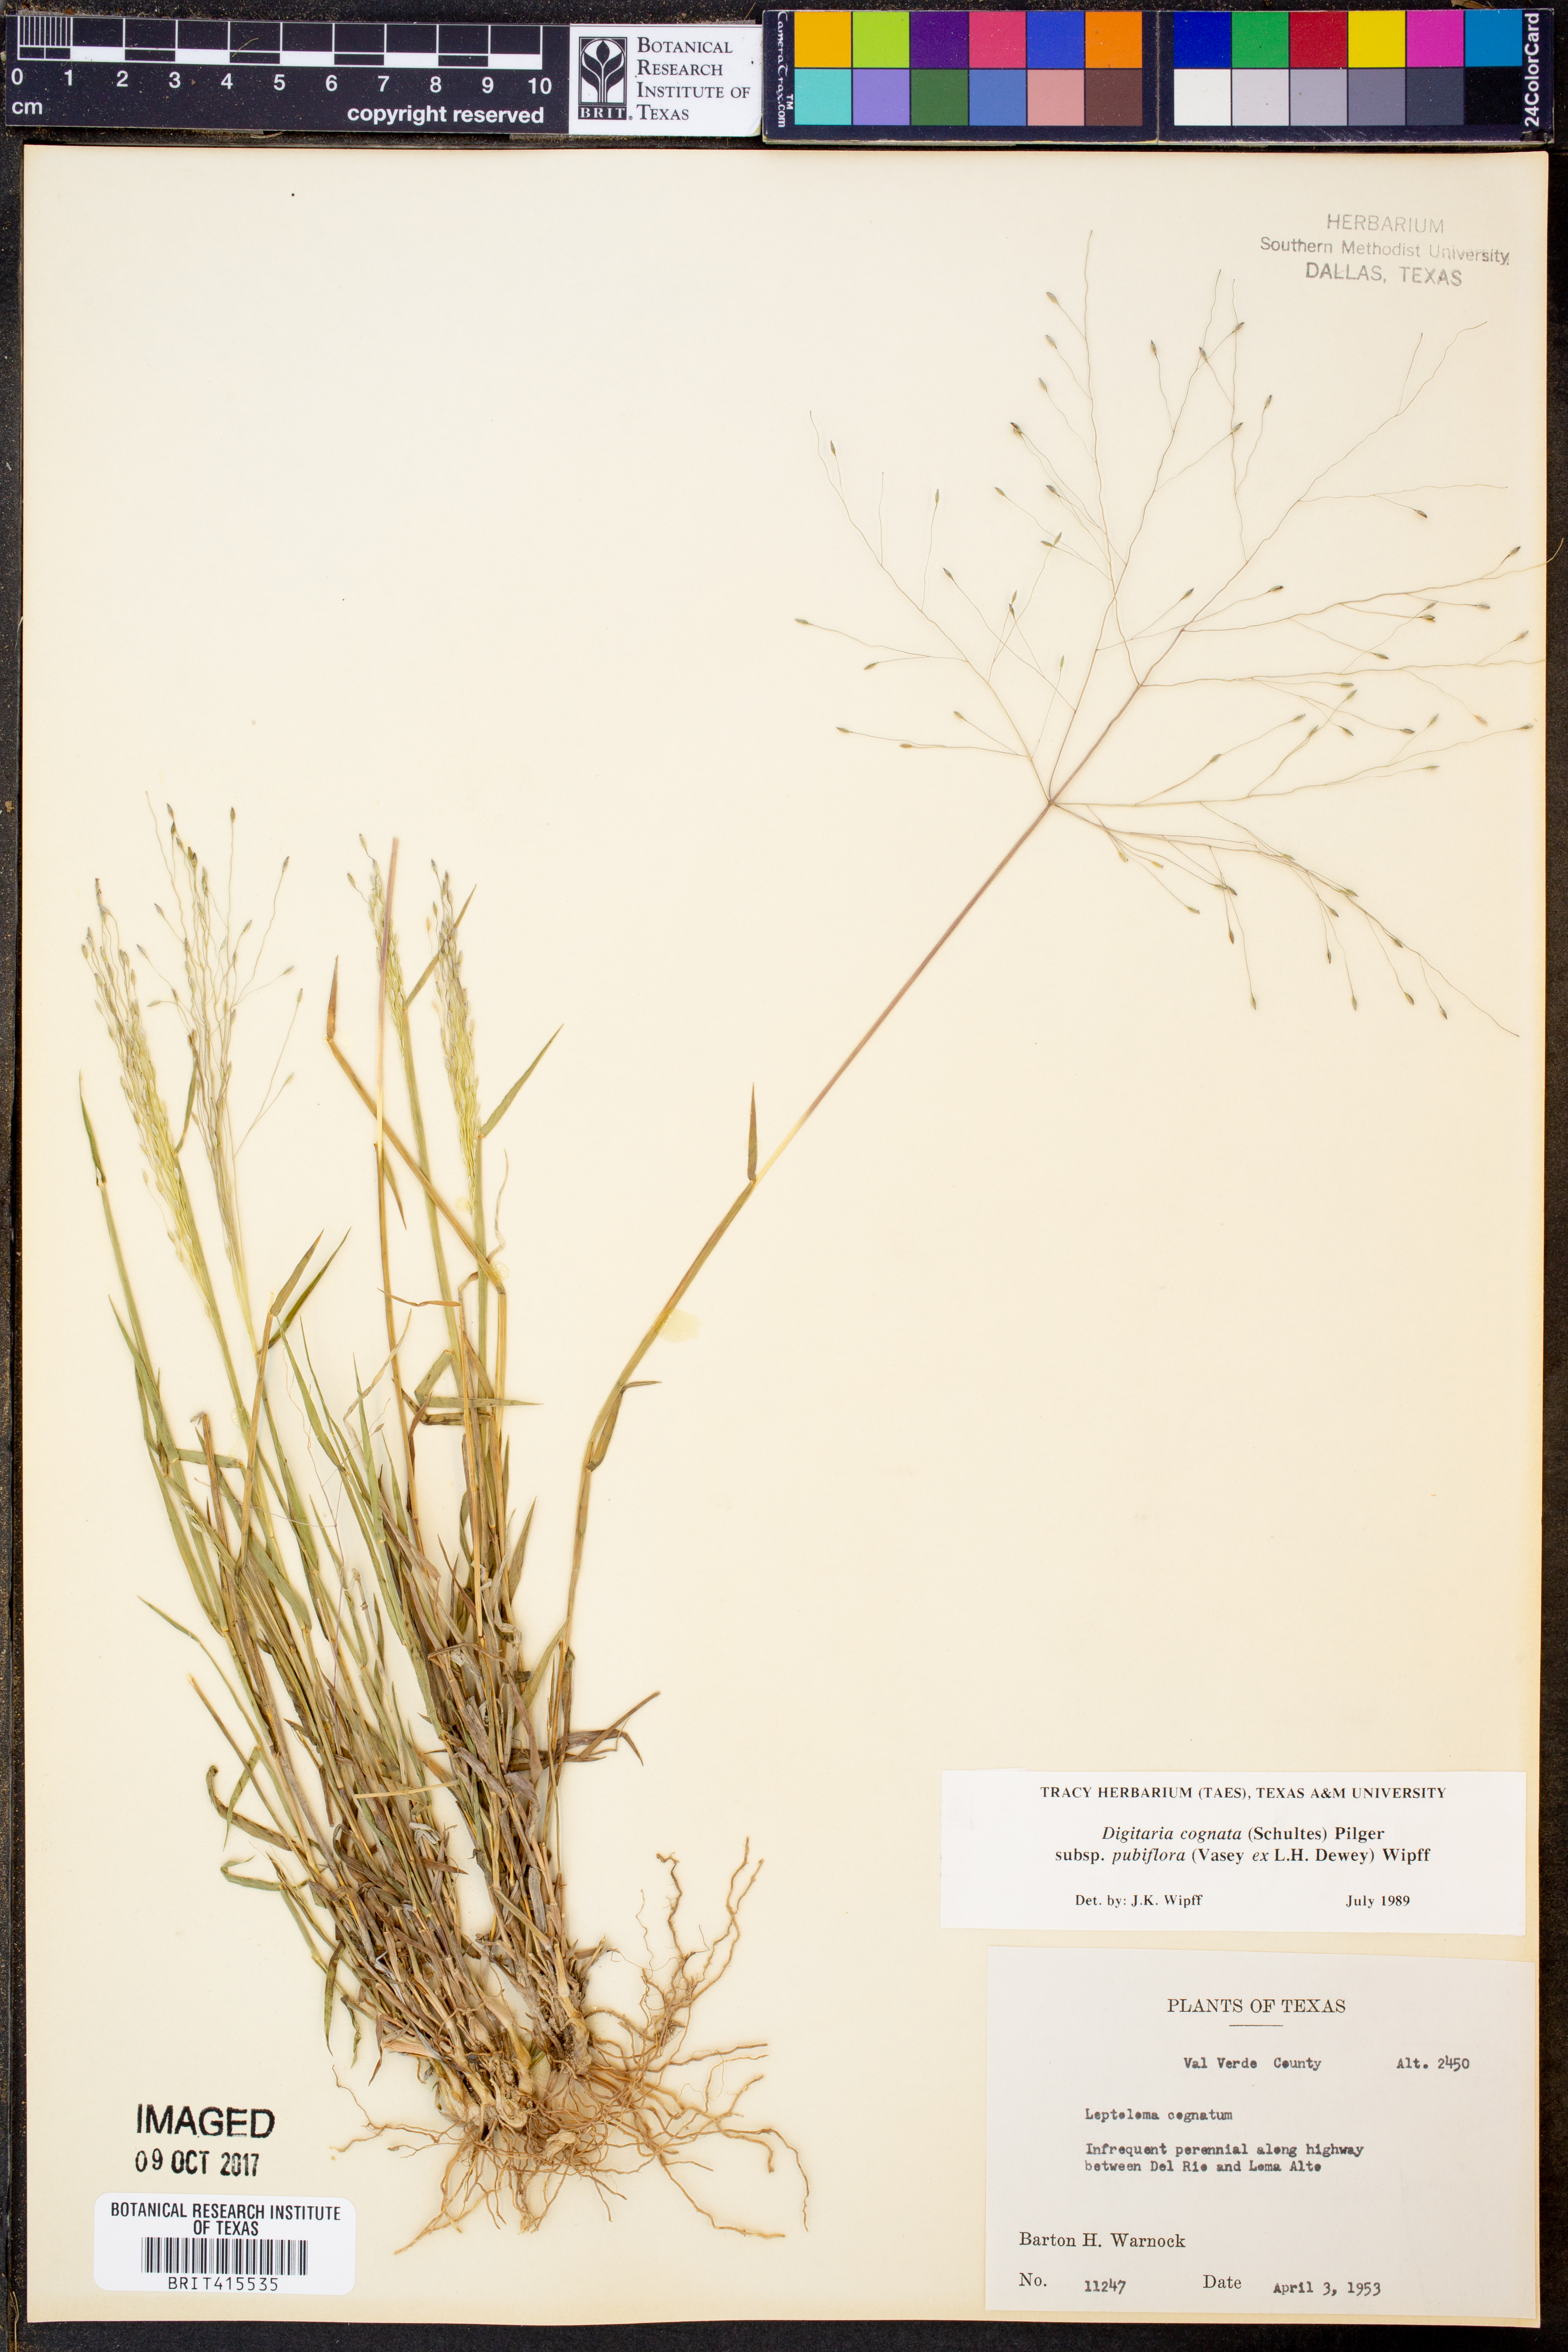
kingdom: Plantae
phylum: Tracheophyta
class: Liliopsida
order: Poales
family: Poaceae
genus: Digitaria
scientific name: Digitaria cognata
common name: Fall witchgrass
